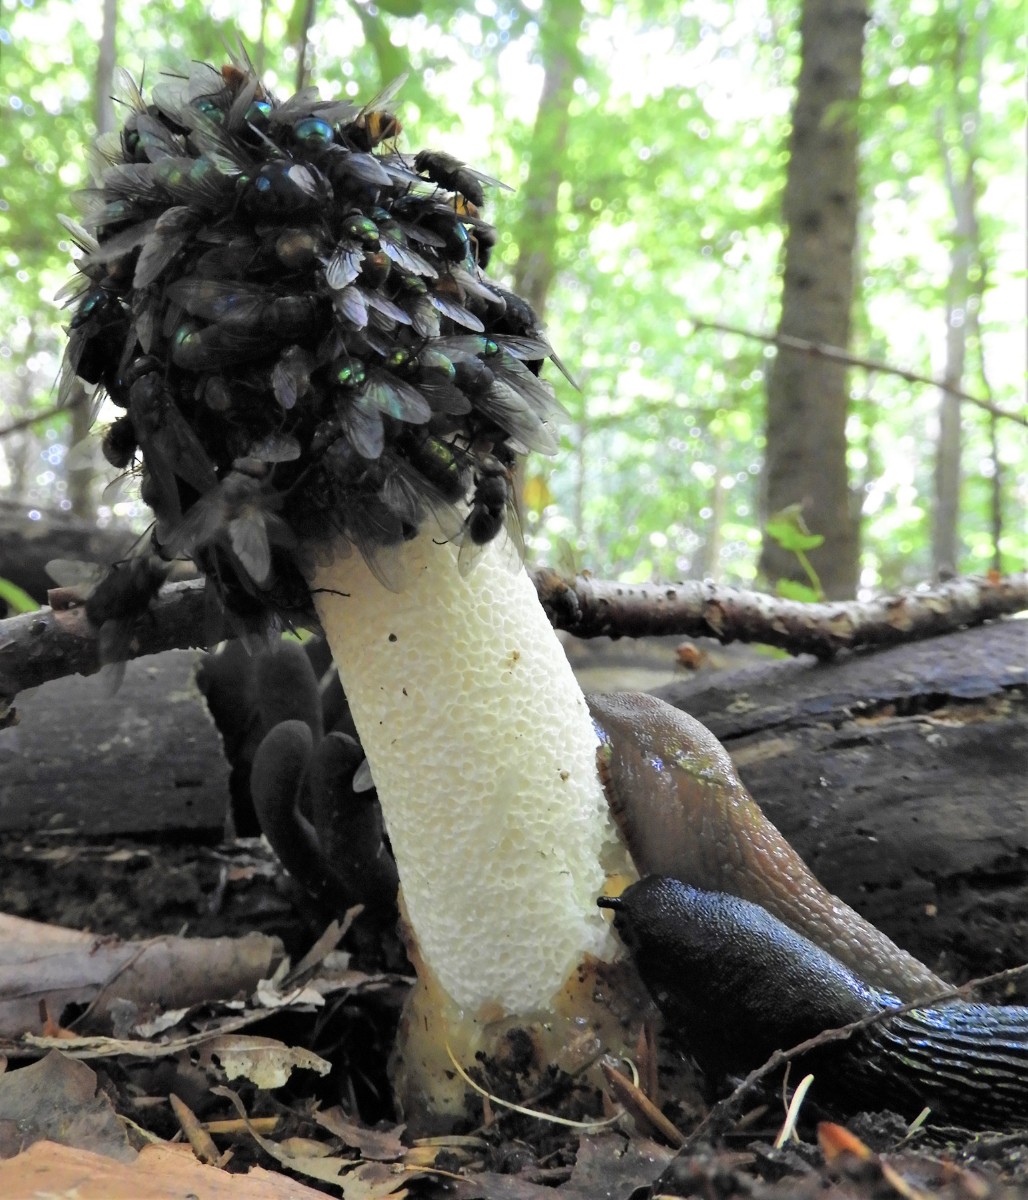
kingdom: Fungi
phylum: Basidiomycota
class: Agaricomycetes
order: Phallales
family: Phallaceae
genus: Phallus
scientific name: Phallus impudicus
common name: almindelig stinksvamp
